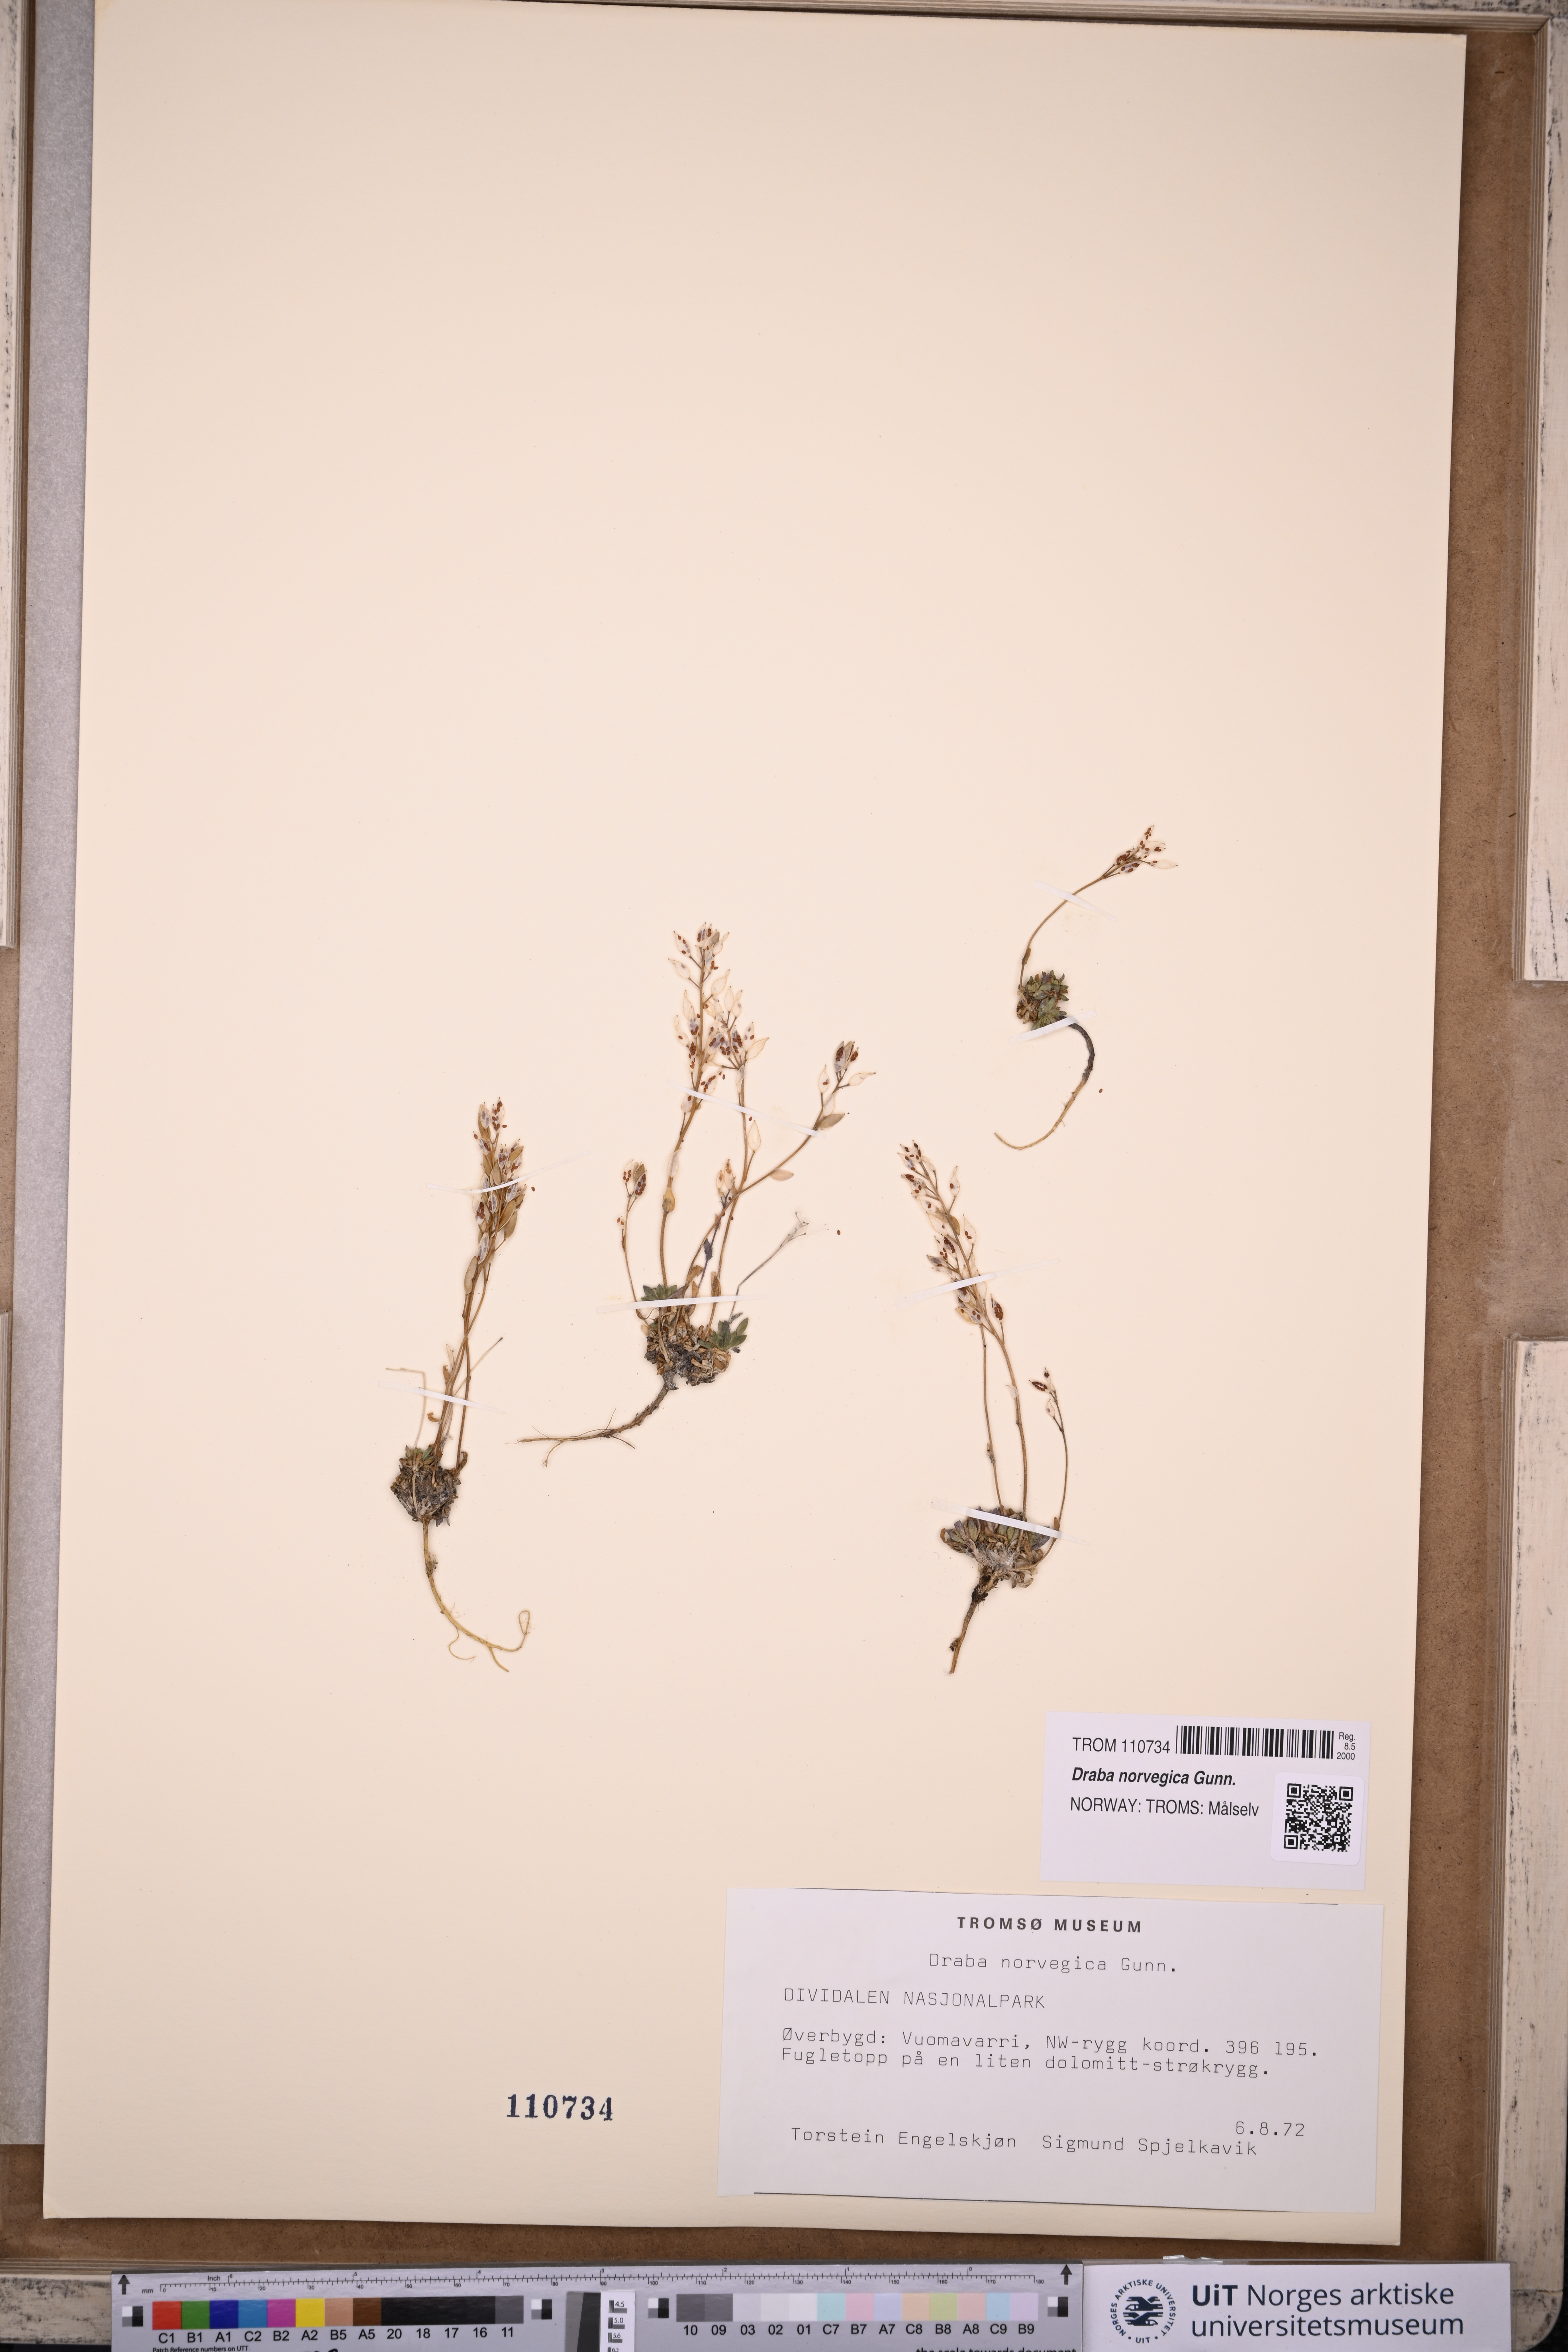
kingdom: Plantae
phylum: Tracheophyta
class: Magnoliopsida
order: Brassicales
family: Brassicaceae
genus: Draba
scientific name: Draba norvegica
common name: Rock whitlowgrass
